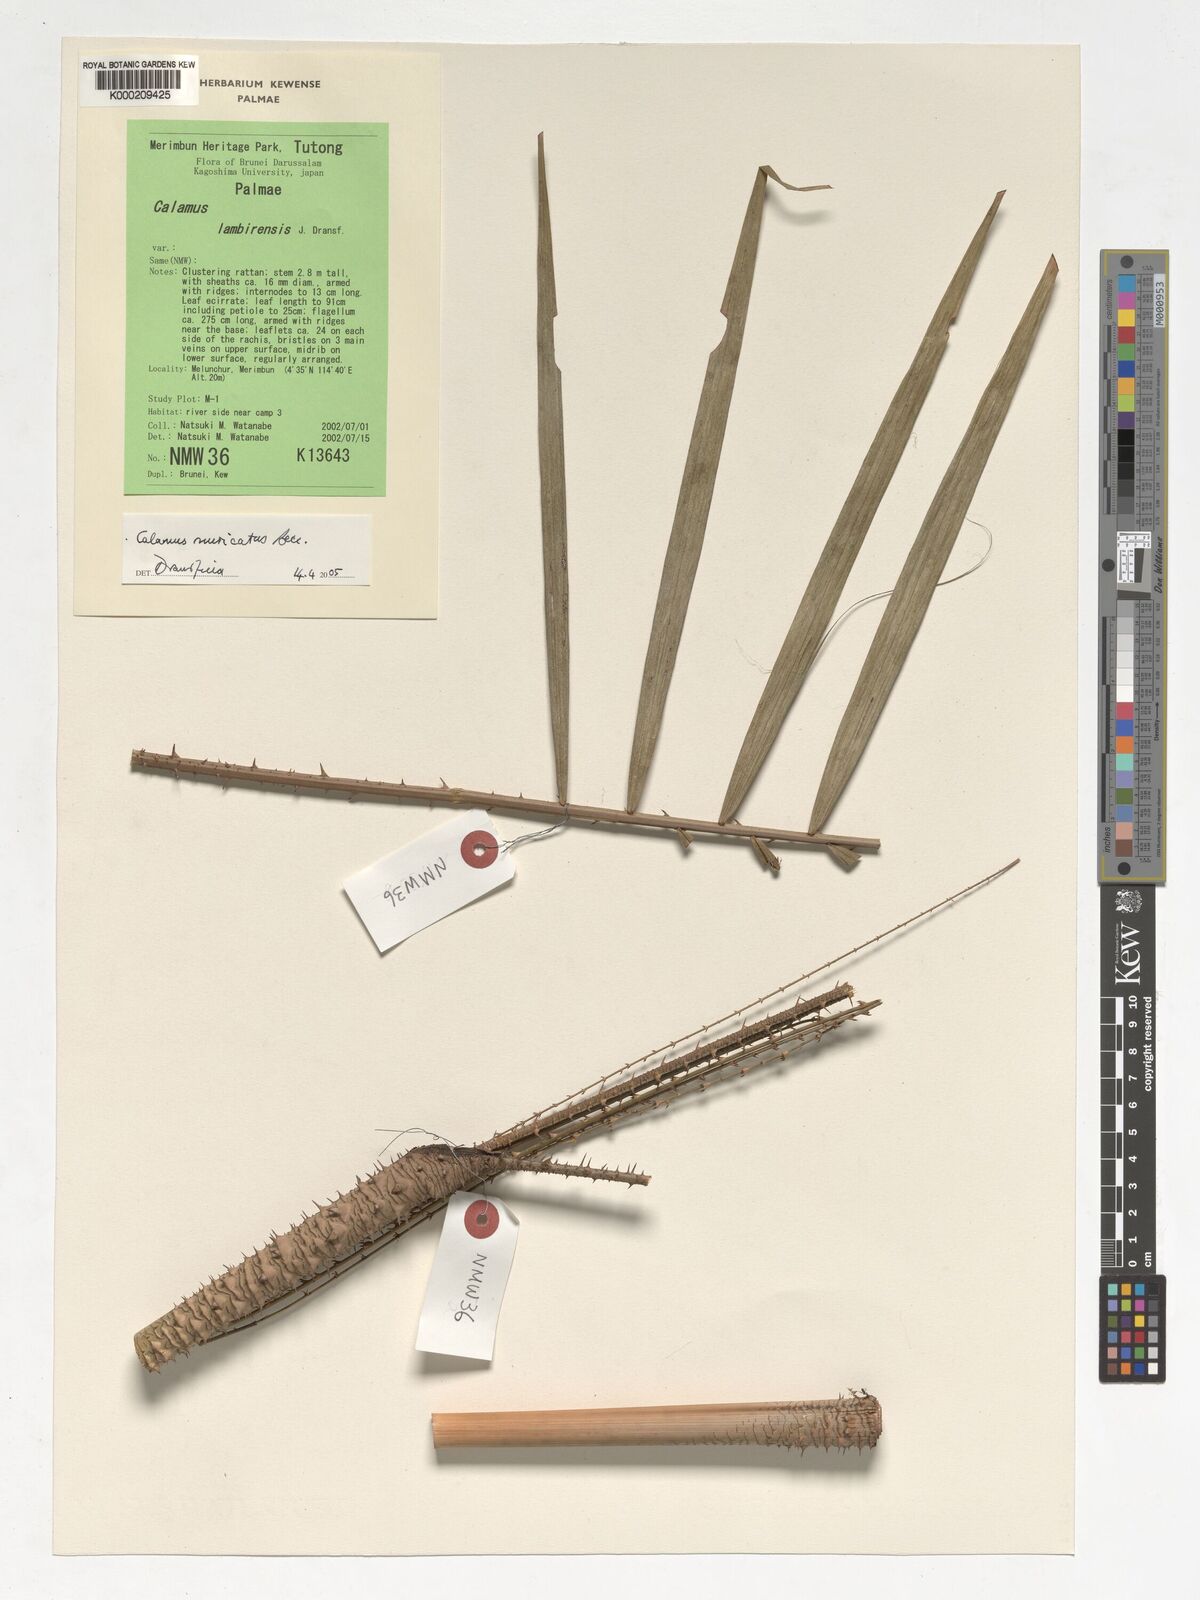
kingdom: Plantae
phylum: Tracheophyta
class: Liliopsida
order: Arecales
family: Arecaceae
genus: Calamus
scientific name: Calamus muricatus
